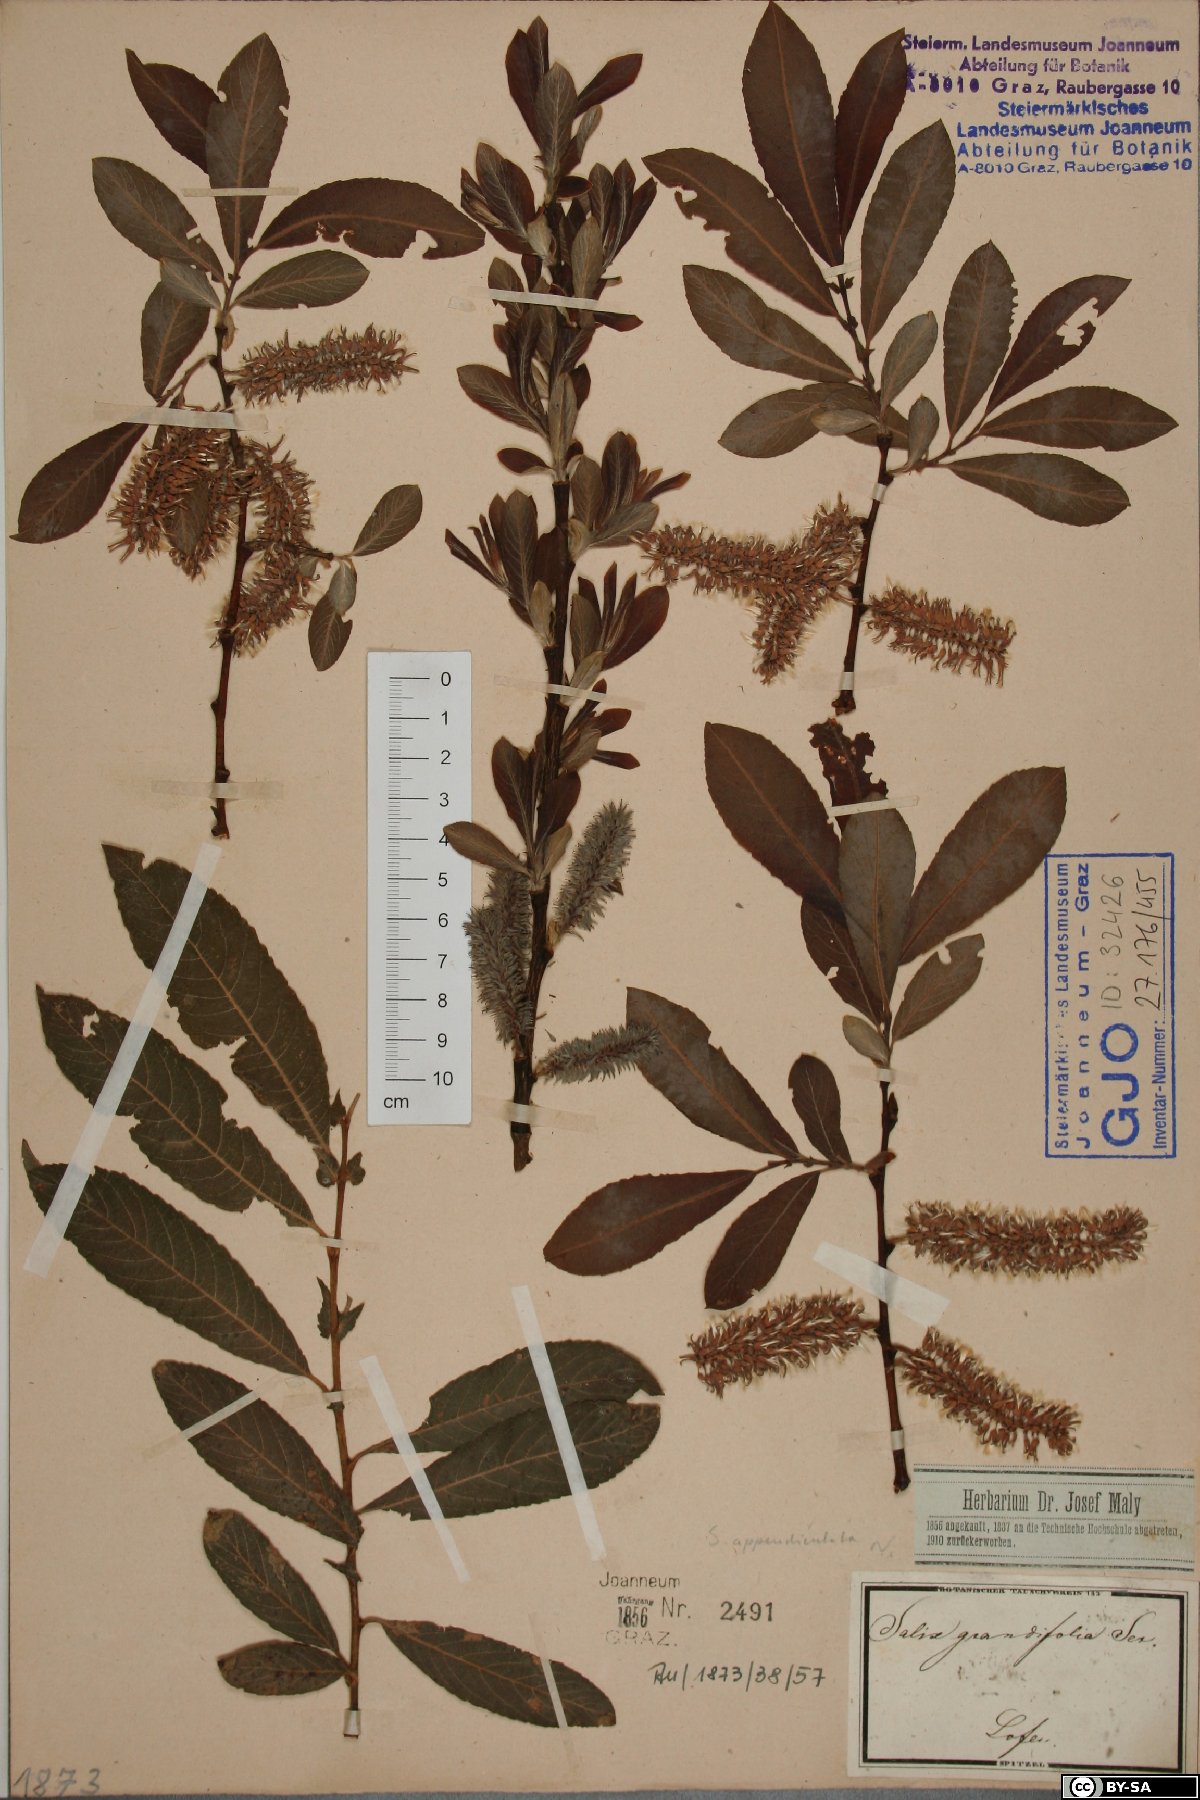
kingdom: Plantae
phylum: Tracheophyta
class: Magnoliopsida
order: Malpighiales
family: Salicaceae
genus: Salix
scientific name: Salix appendiculata
